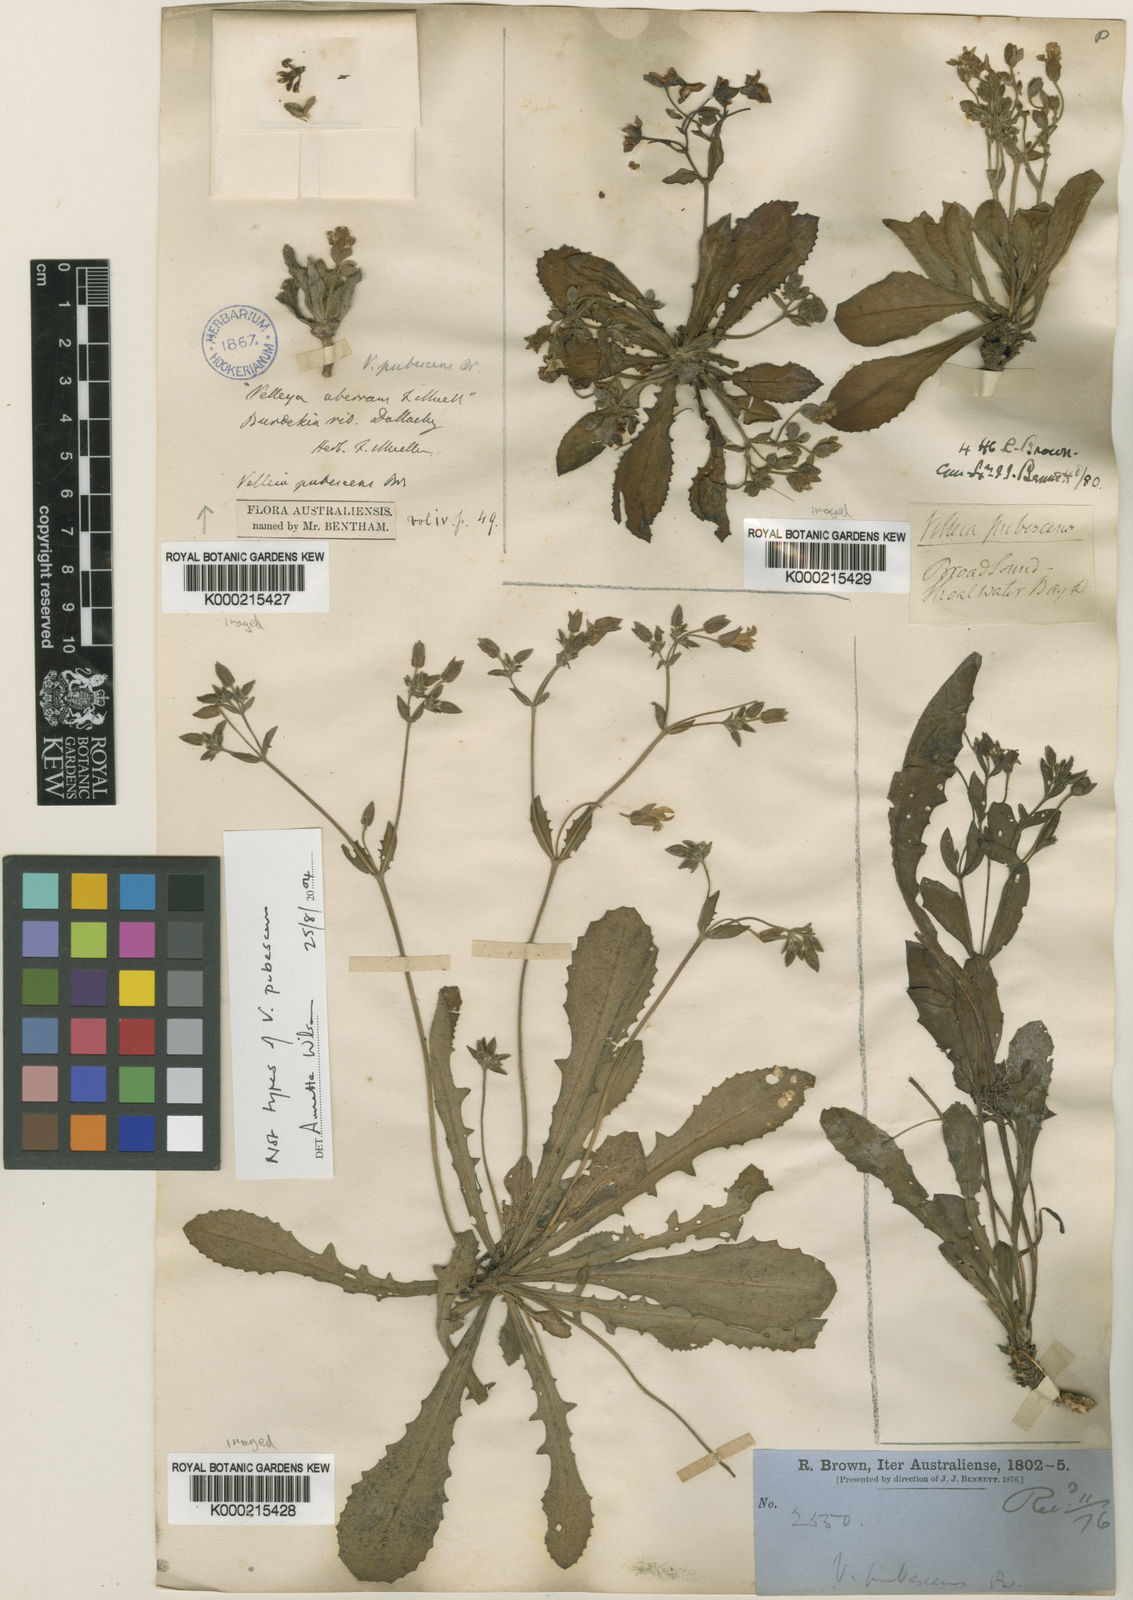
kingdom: Plantae
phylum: Tracheophyta
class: Magnoliopsida
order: Asterales
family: Goodeniaceae
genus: Goodenia
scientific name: Goodenia subsolana
